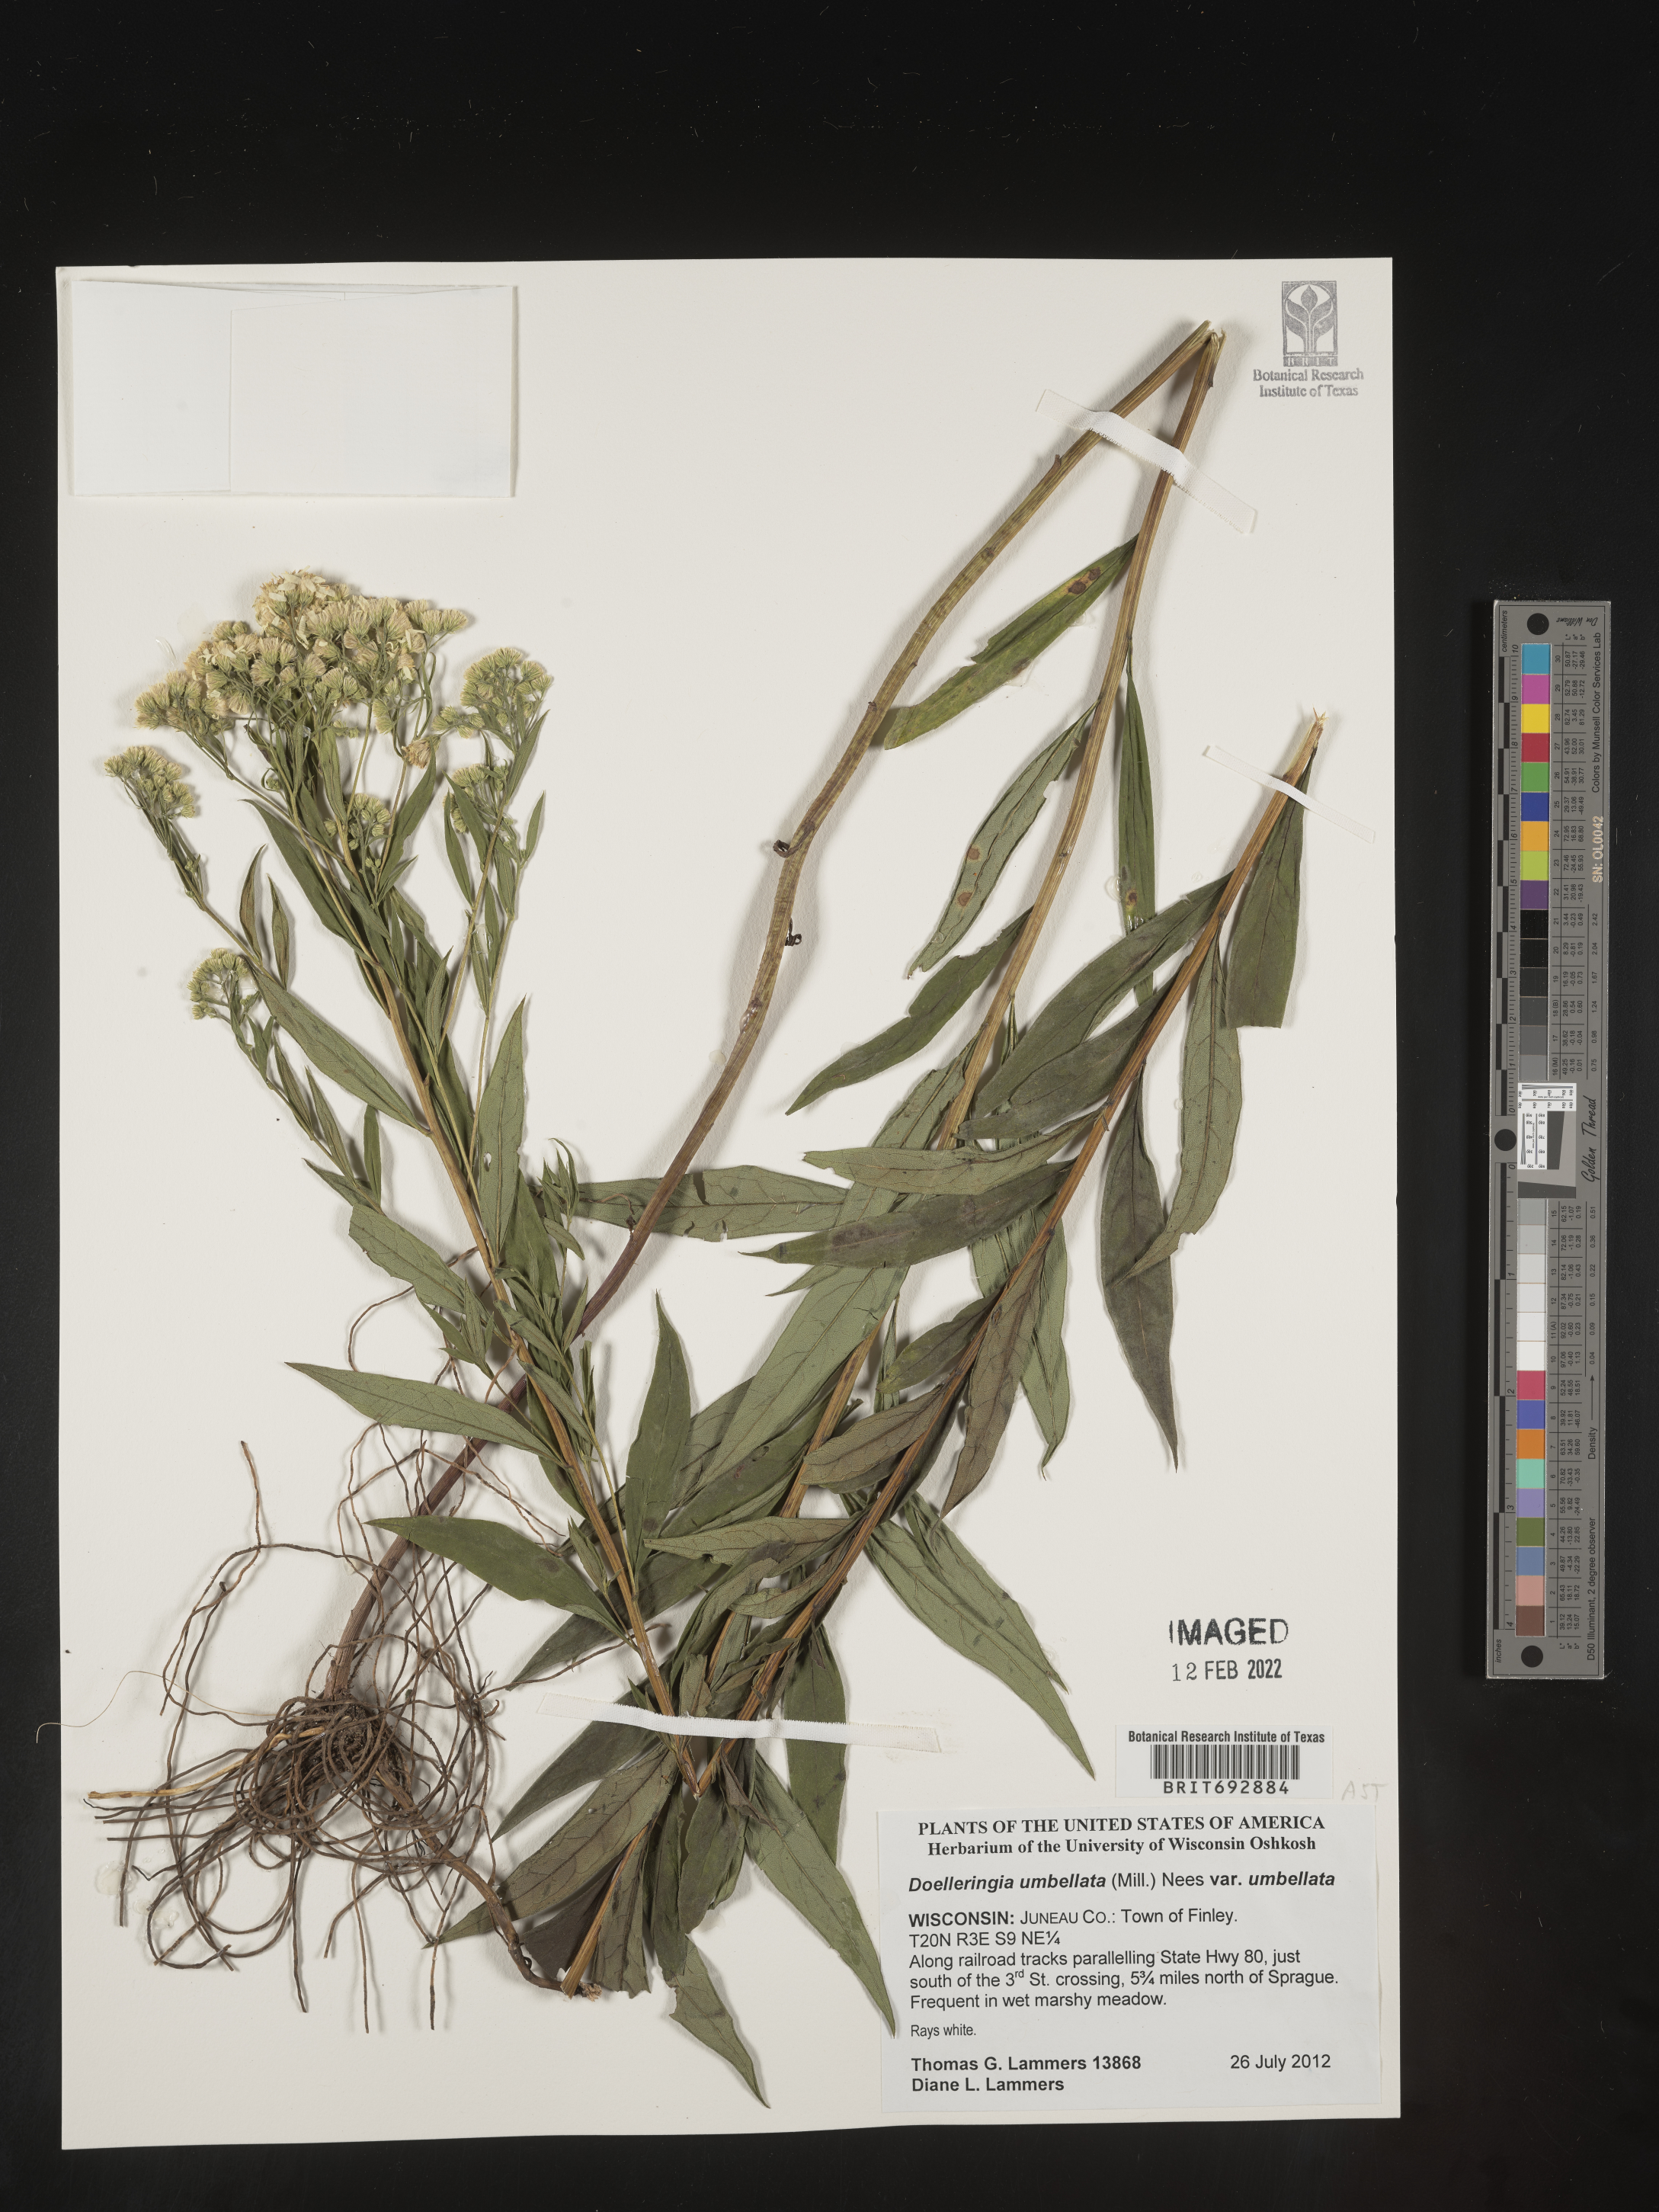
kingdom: Plantae
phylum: Tracheophyta
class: Magnoliopsida
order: Asterales
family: Asteraceae
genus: Doellingeria
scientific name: Doellingeria umbellata
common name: Flat-top white aster
